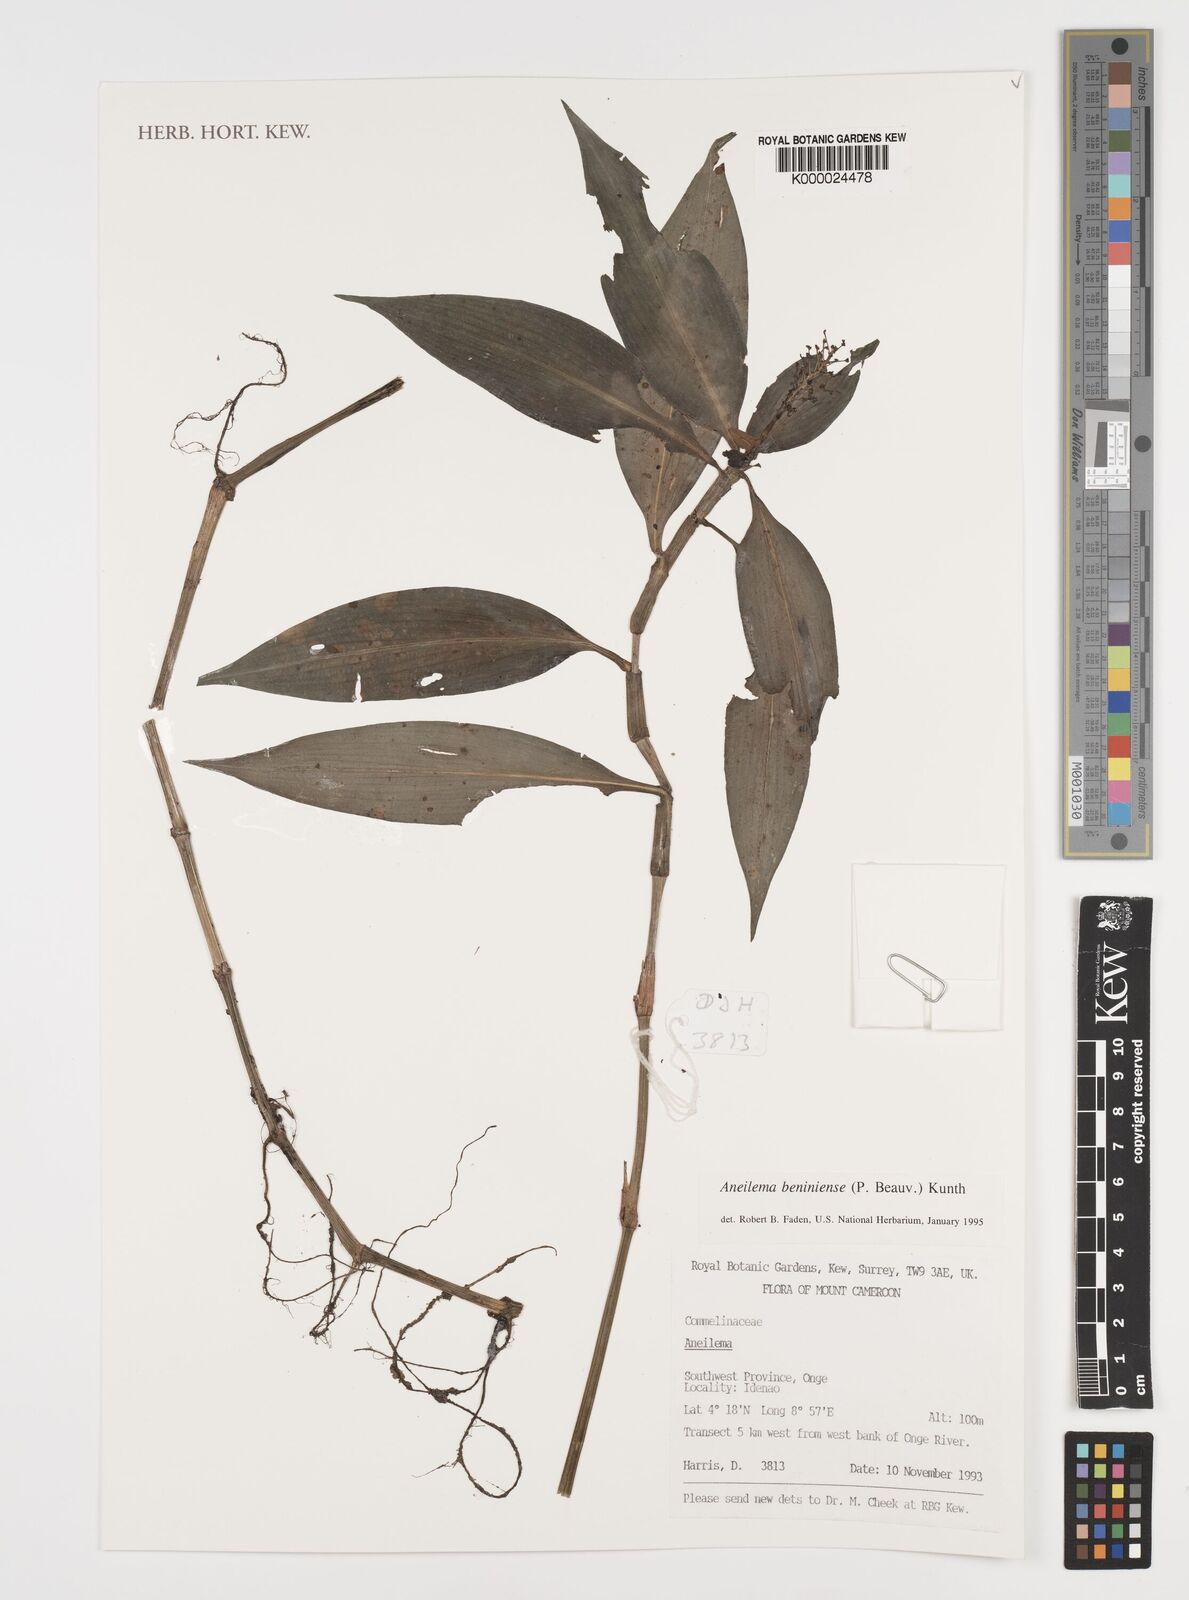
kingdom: Plantae
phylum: Tracheophyta
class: Liliopsida
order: Commelinales
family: Commelinaceae
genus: Aneilema
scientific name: Aneilema beniniense
